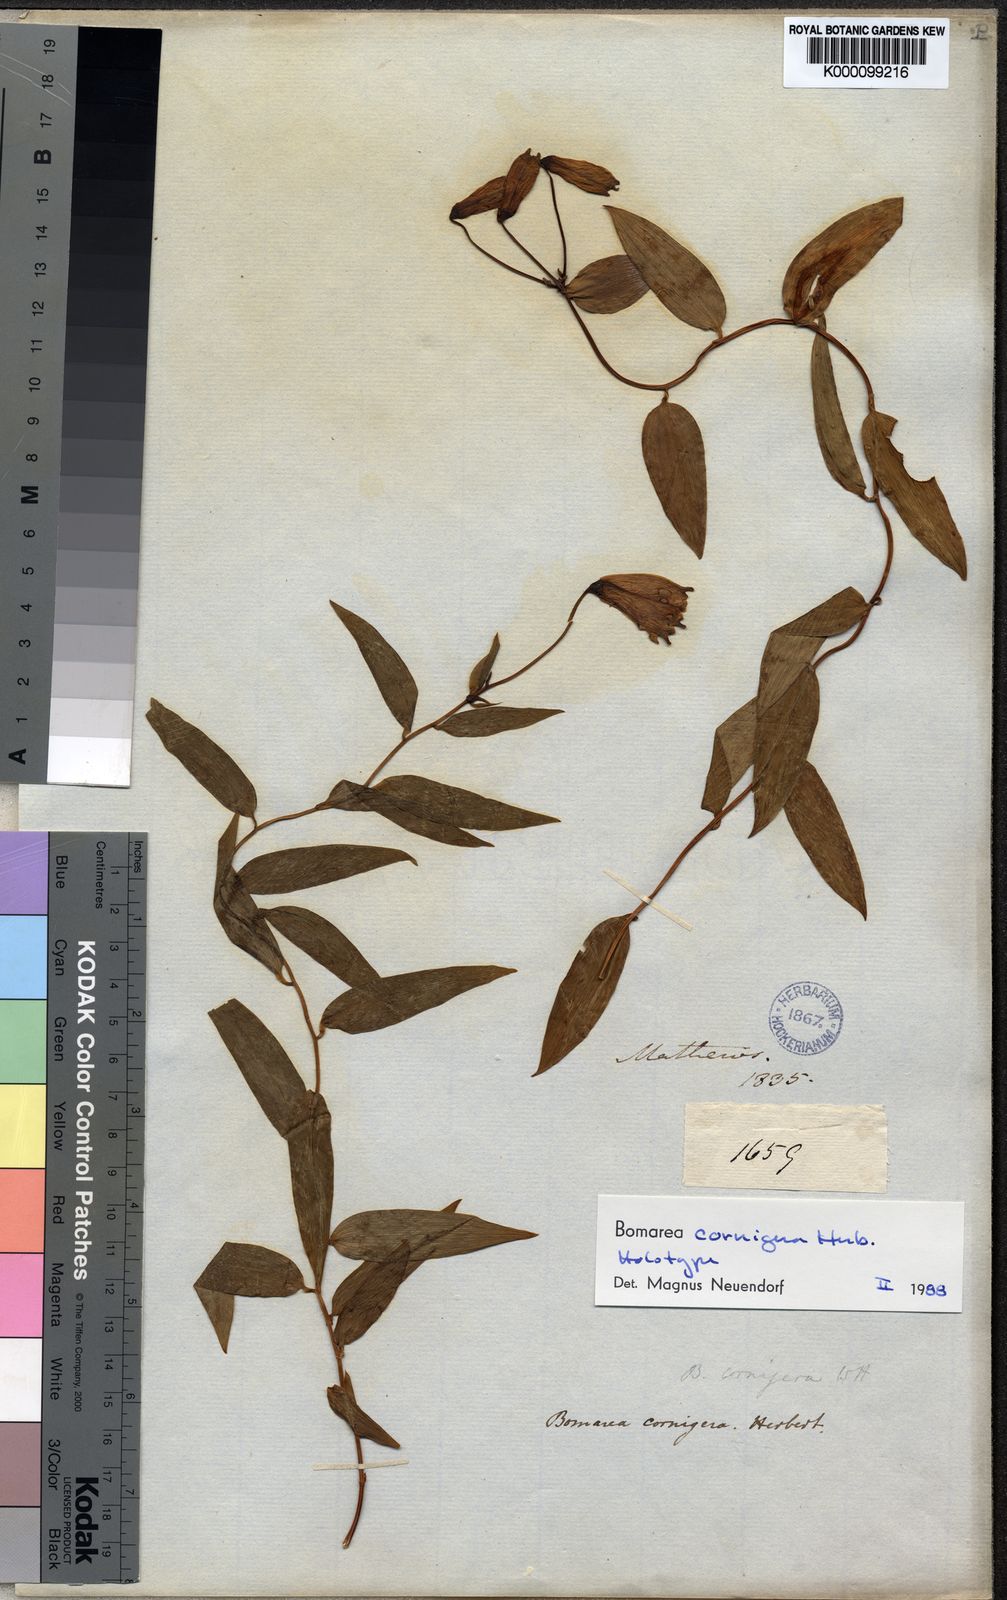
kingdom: Plantae
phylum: Tracheophyta
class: Liliopsida
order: Liliales
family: Alstroemeriaceae
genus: Bomarea
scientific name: Bomarea cornigera
